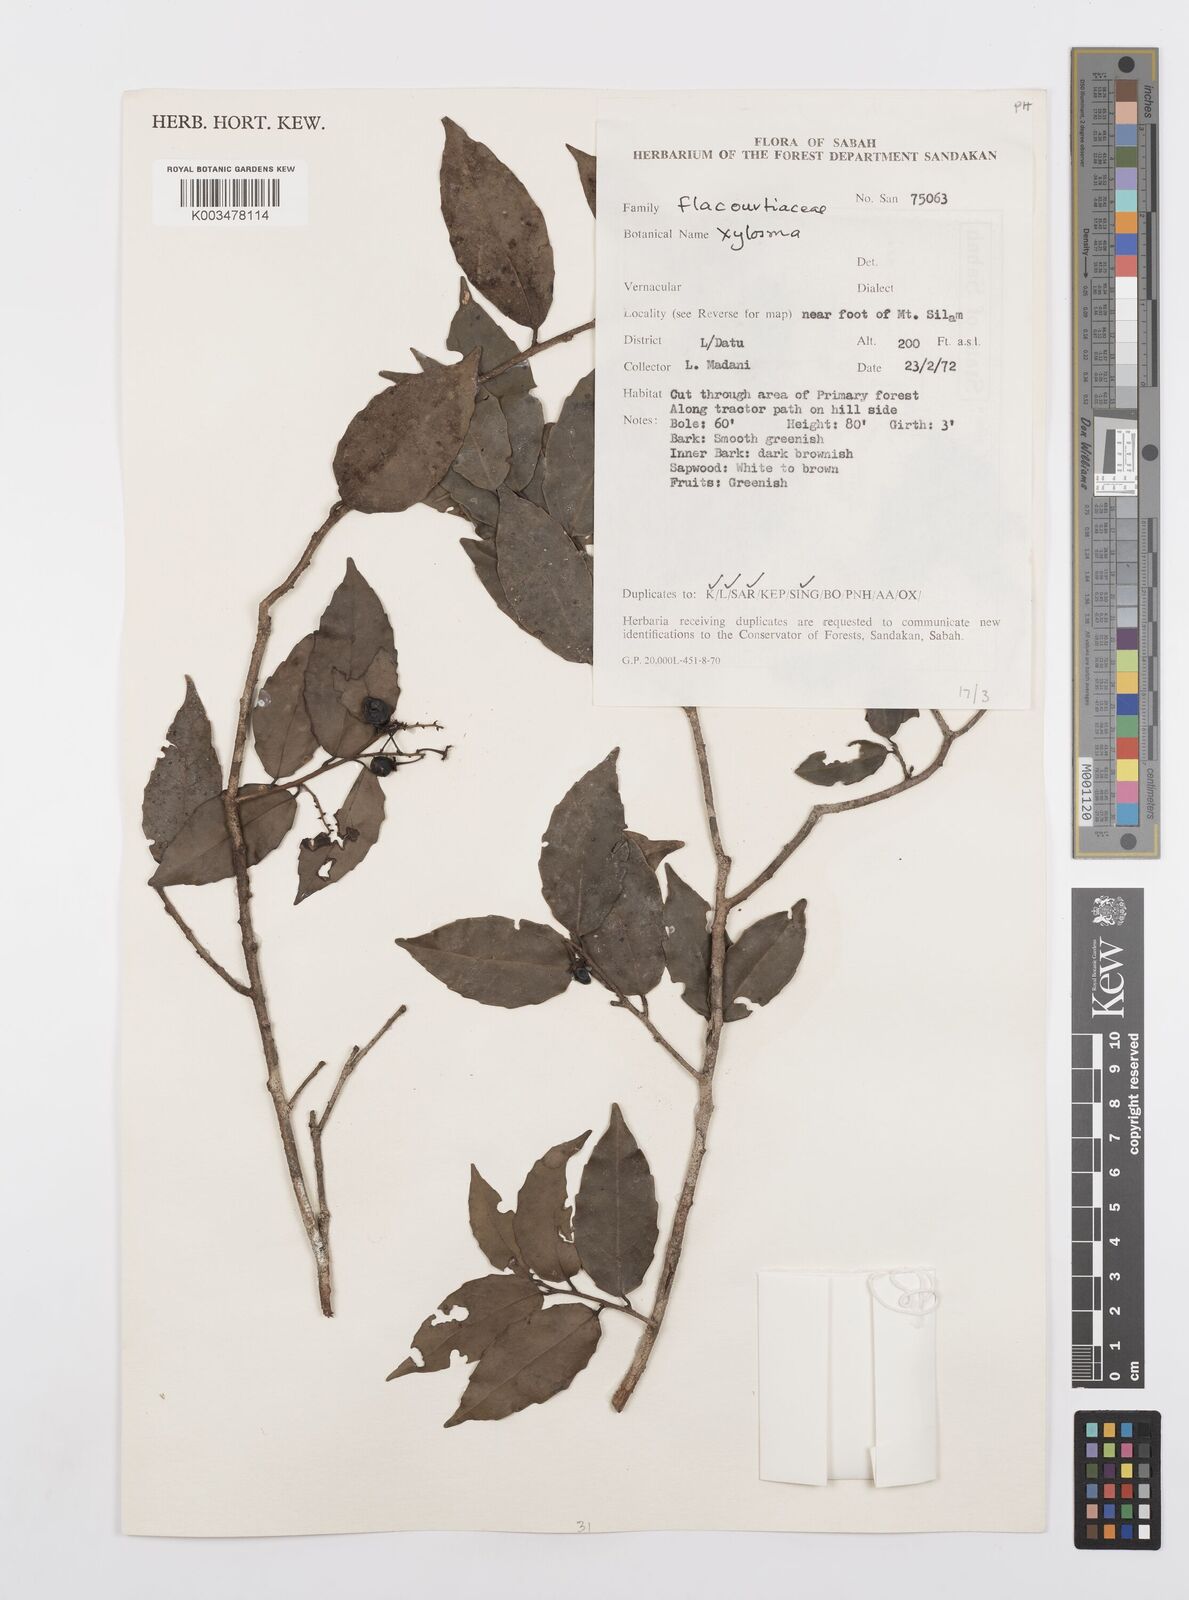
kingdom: Plantae
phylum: Tracheophyta
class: Magnoliopsida
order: Malpighiales
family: Salicaceae
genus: Scolopia
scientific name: Scolopia
